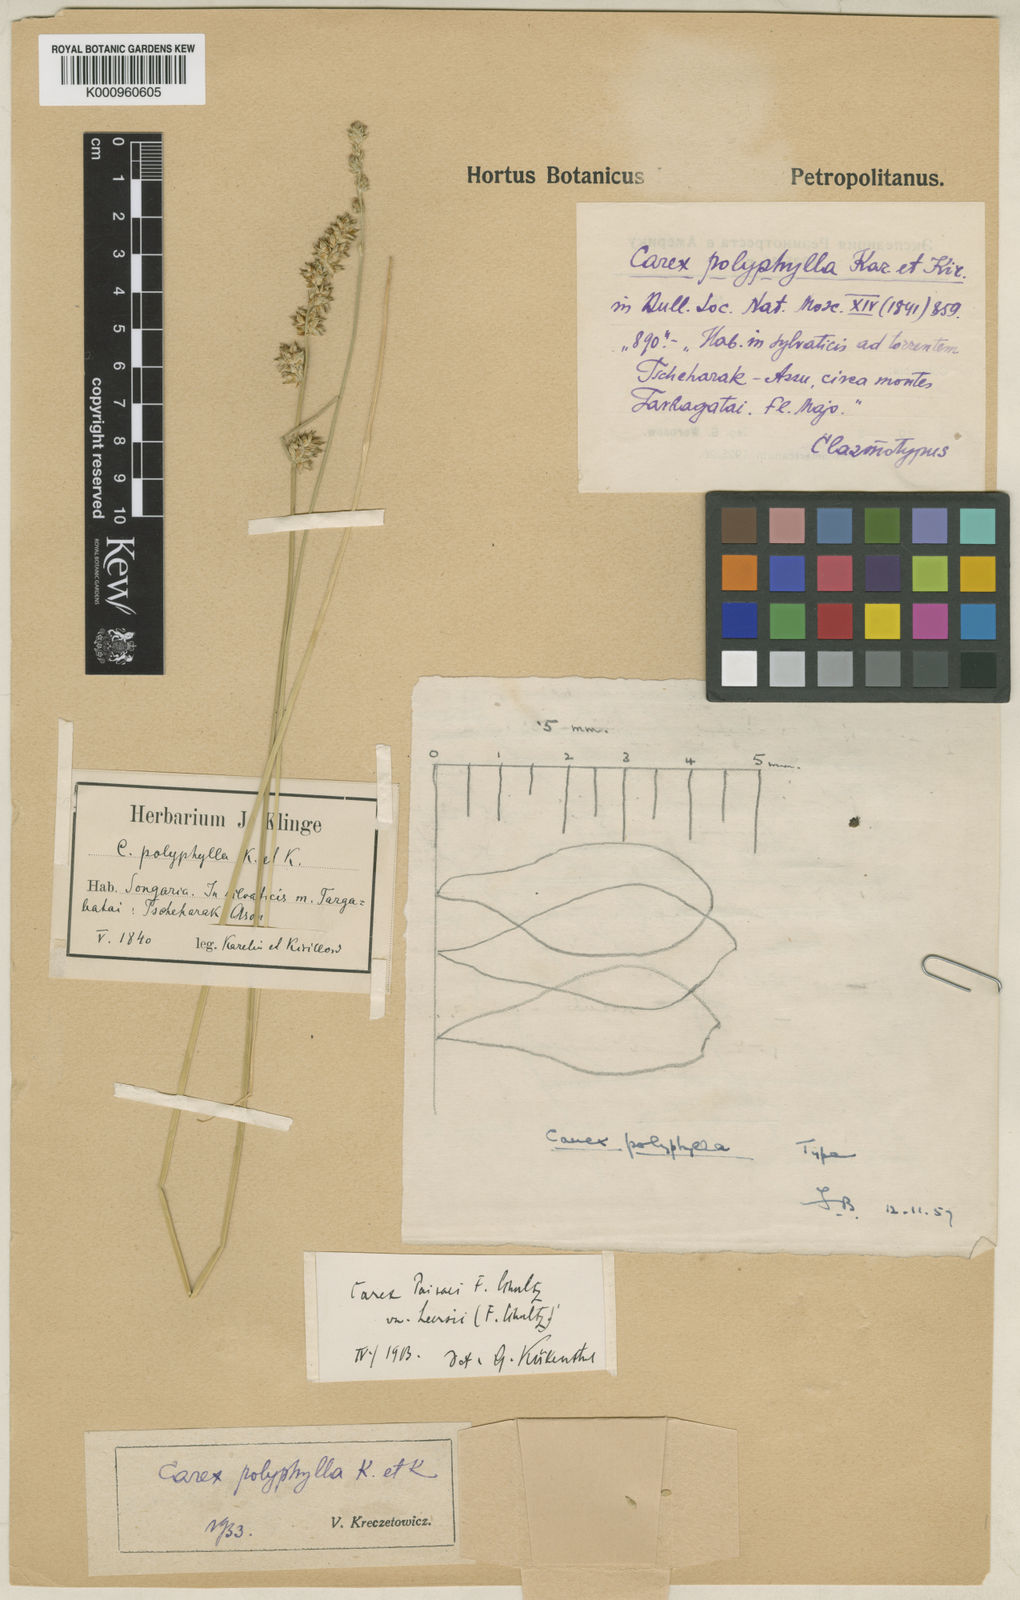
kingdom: Plantae
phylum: Tracheophyta
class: Liliopsida
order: Poales
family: Cyperaceae
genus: Carex
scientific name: Carex divulsa
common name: Grassland sedge
